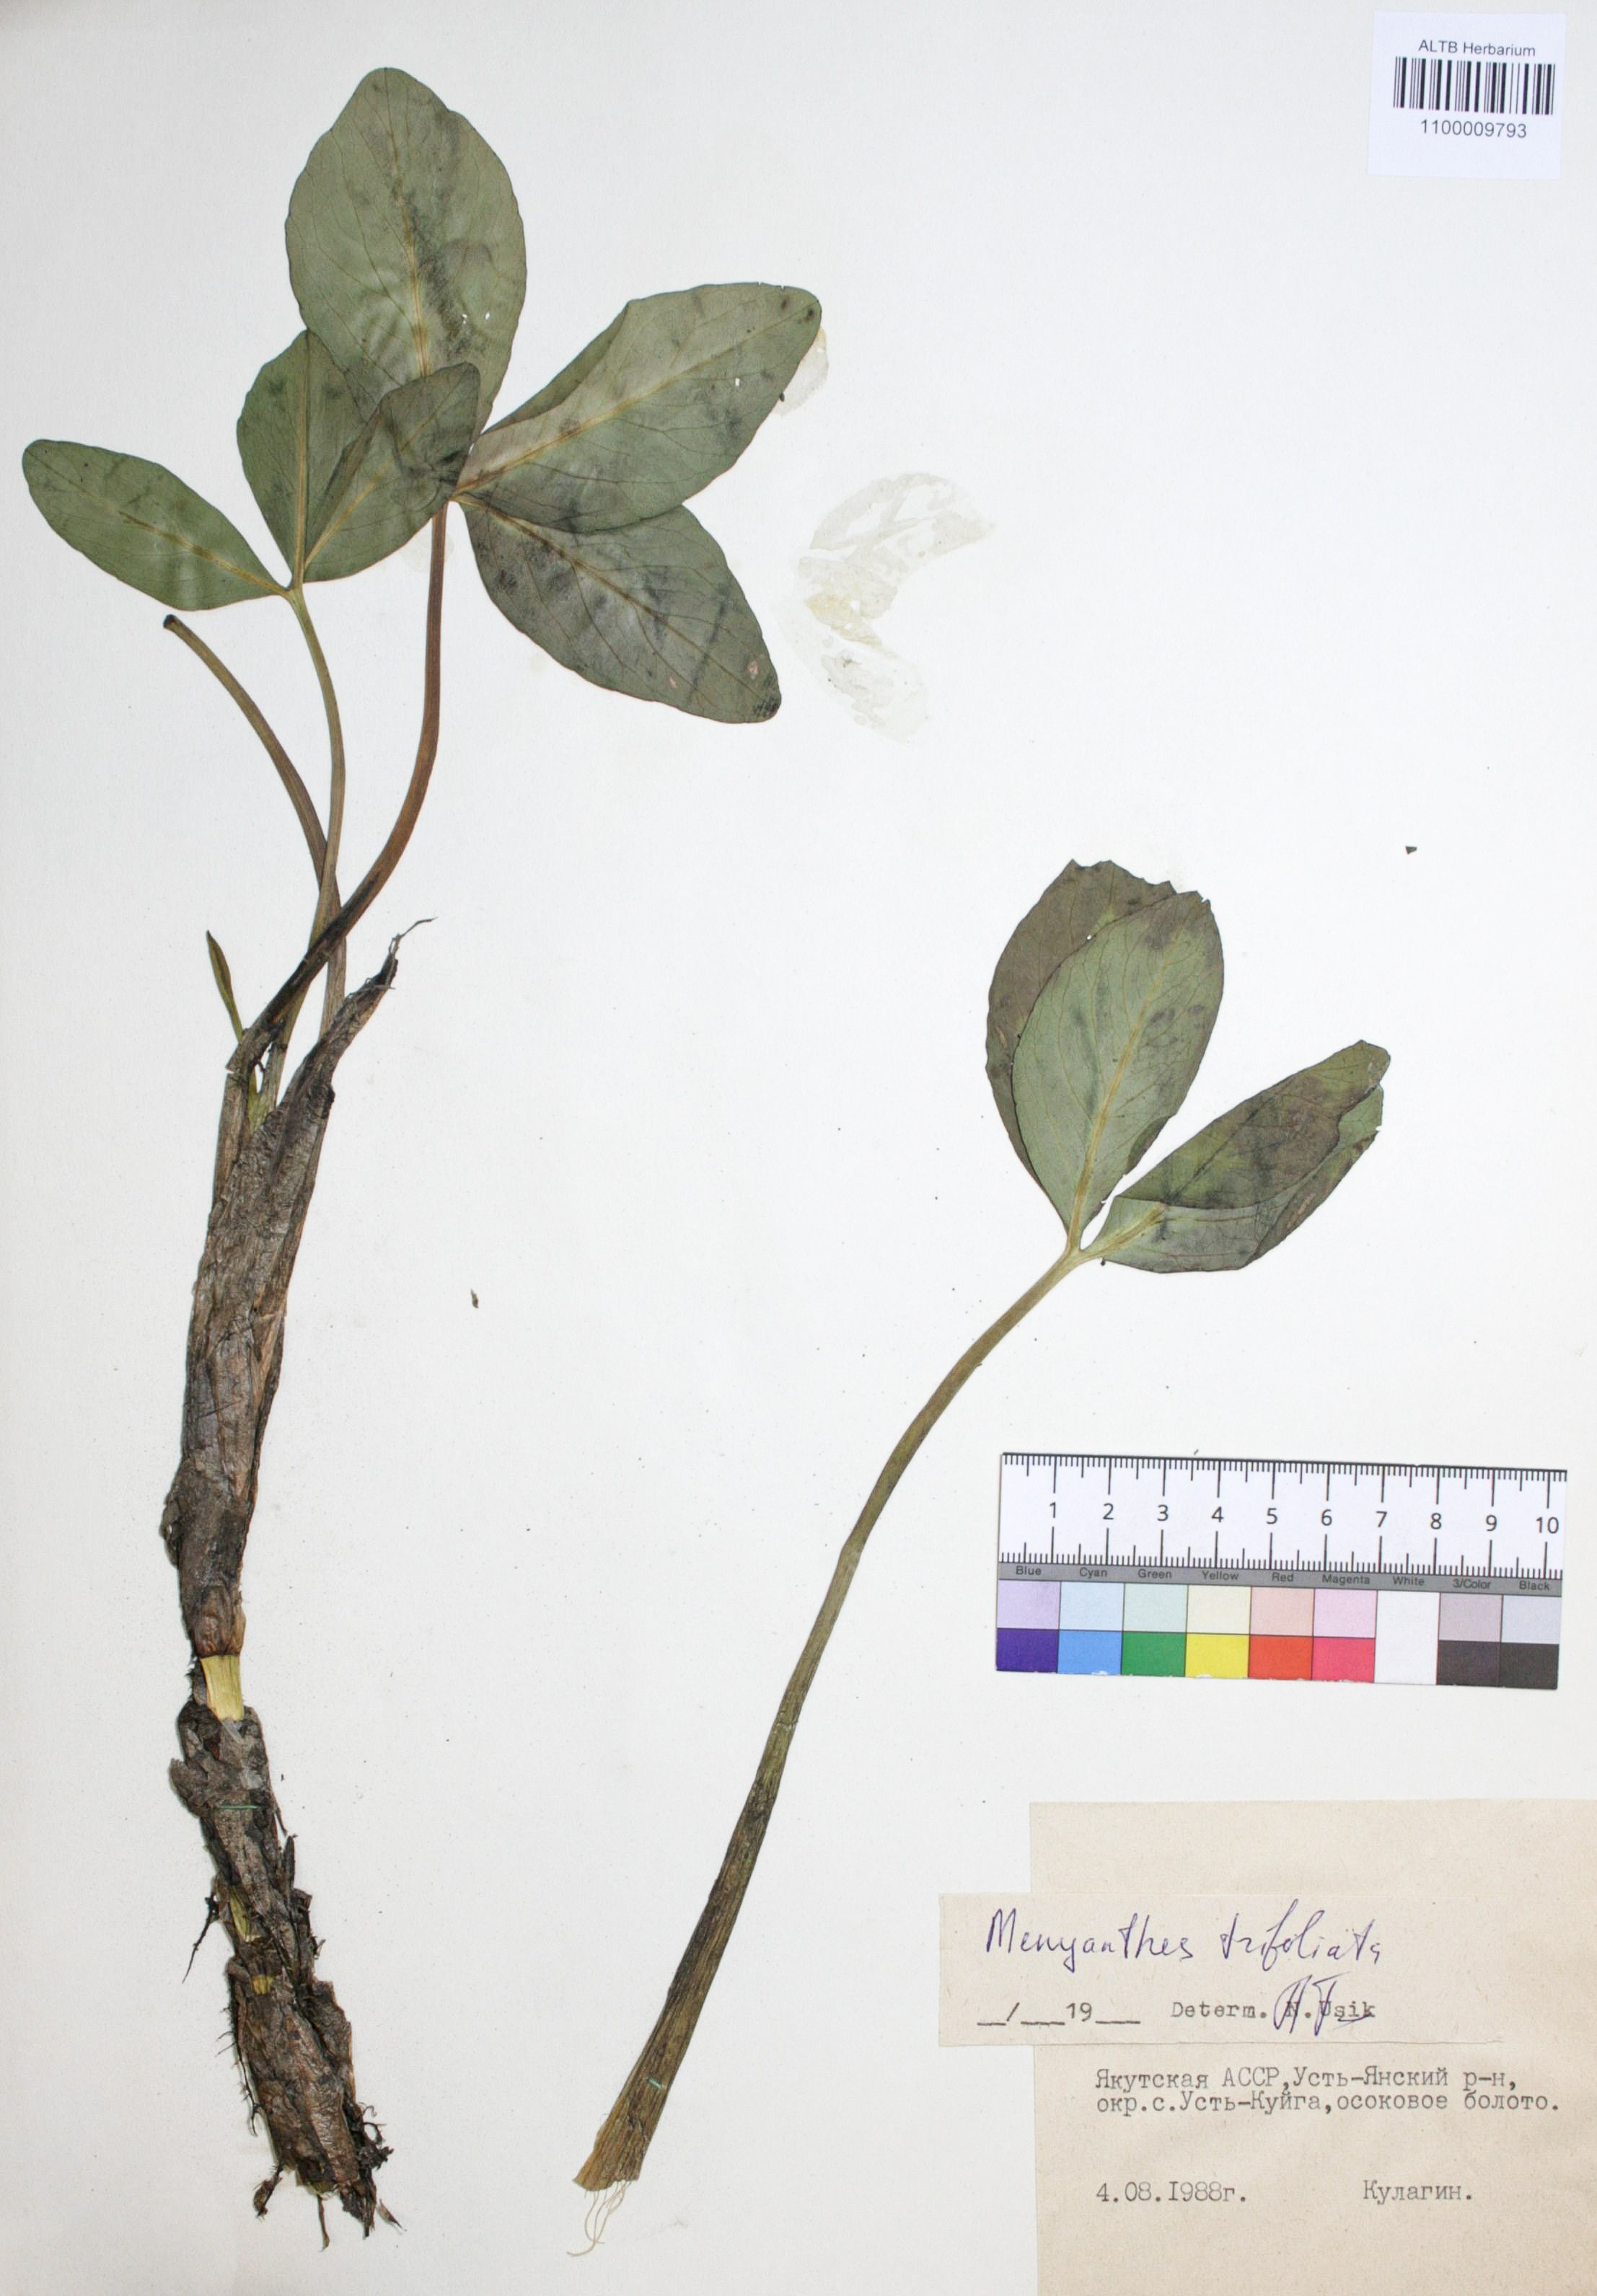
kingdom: Plantae
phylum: Tracheophyta
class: Magnoliopsida
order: Asterales
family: Menyanthaceae
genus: Menyanthes
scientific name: Menyanthes trifoliata
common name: Bogbean
